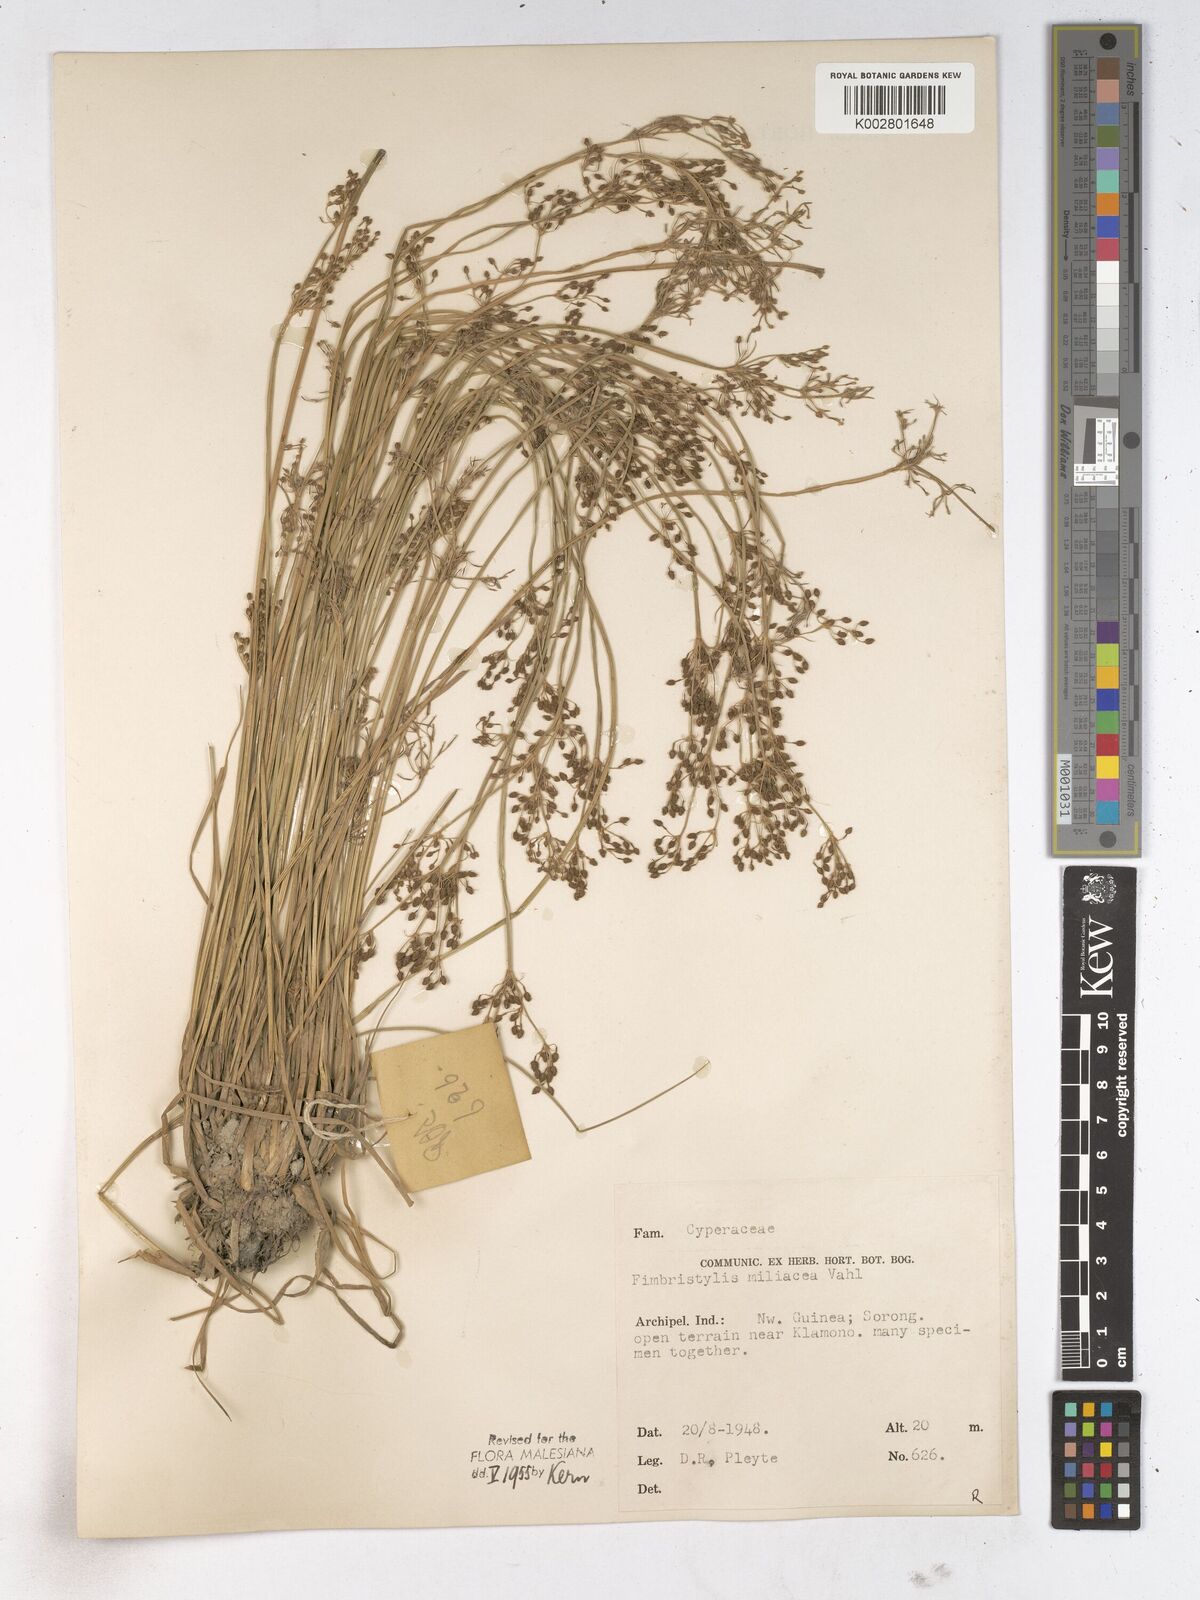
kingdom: Plantae
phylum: Tracheophyta
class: Liliopsida
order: Poales
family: Cyperaceae
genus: Fimbristylis
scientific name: Fimbristylis littoralis
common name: Fimbry
